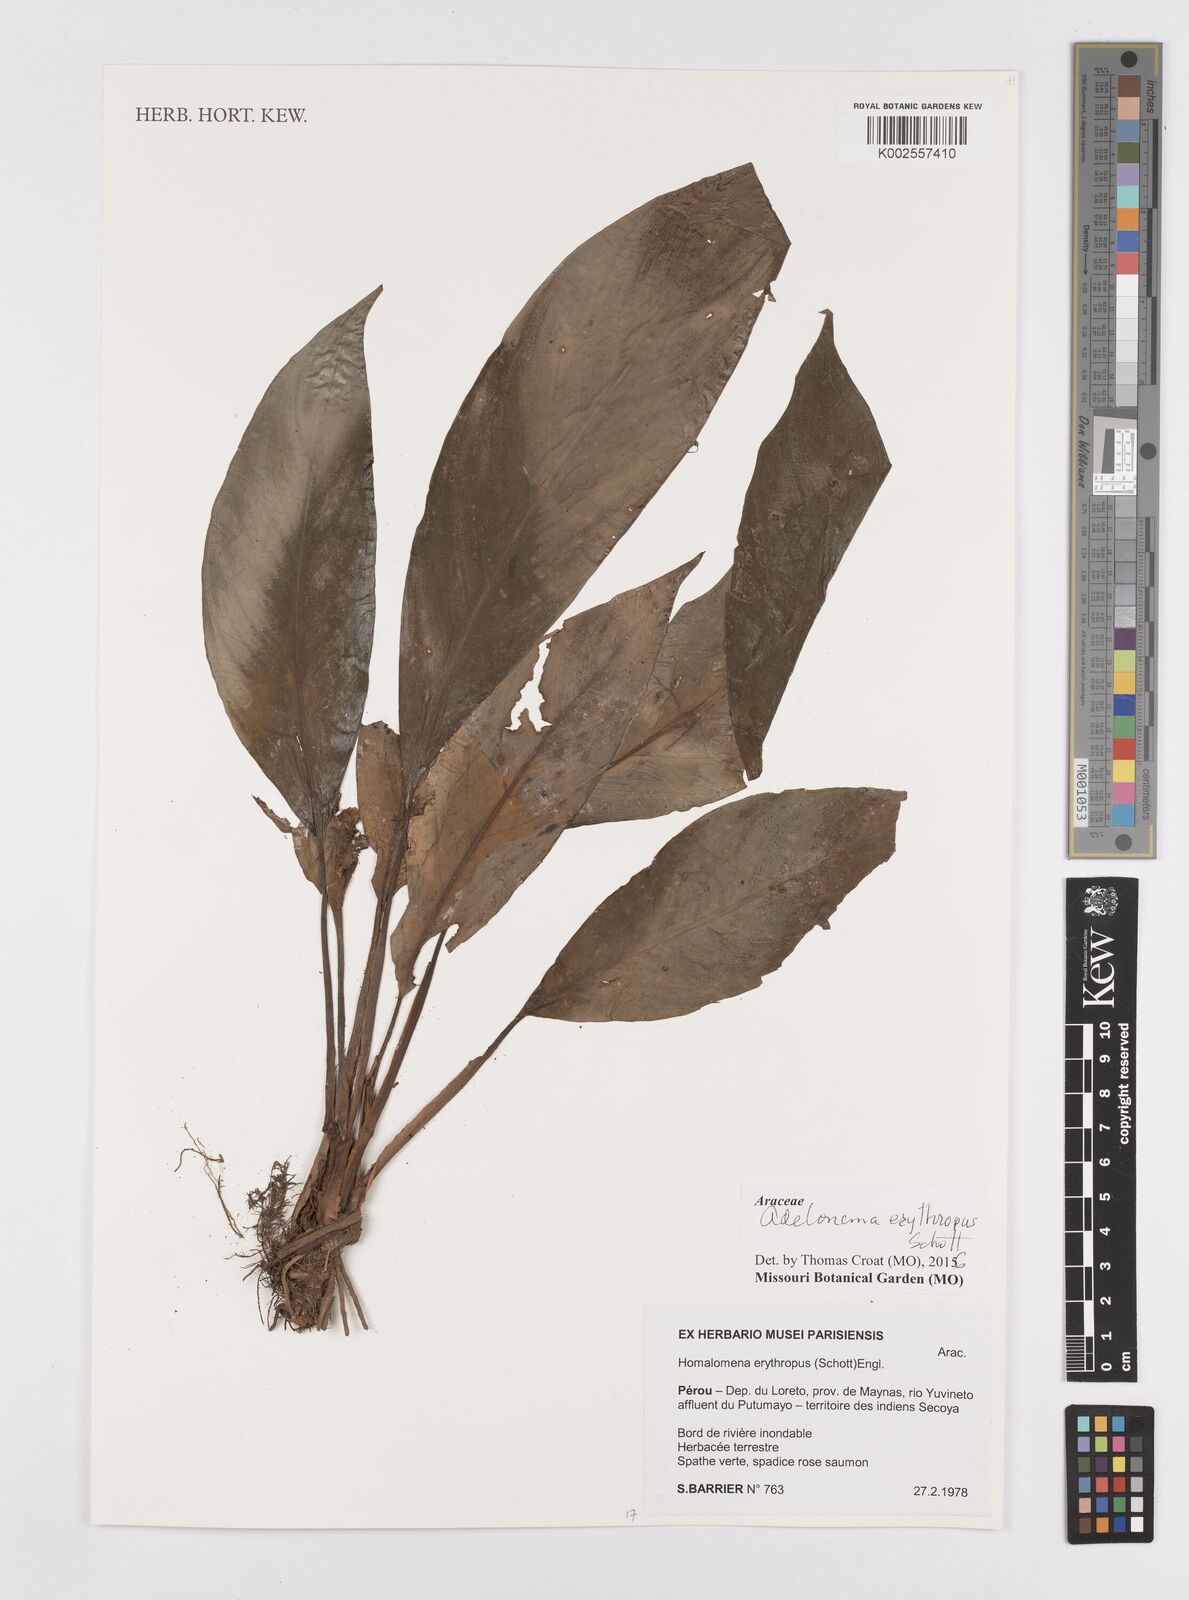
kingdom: Plantae
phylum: Tracheophyta
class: Liliopsida
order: Alismatales
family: Araceae
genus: Adelonema
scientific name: Adelonema erythropus
